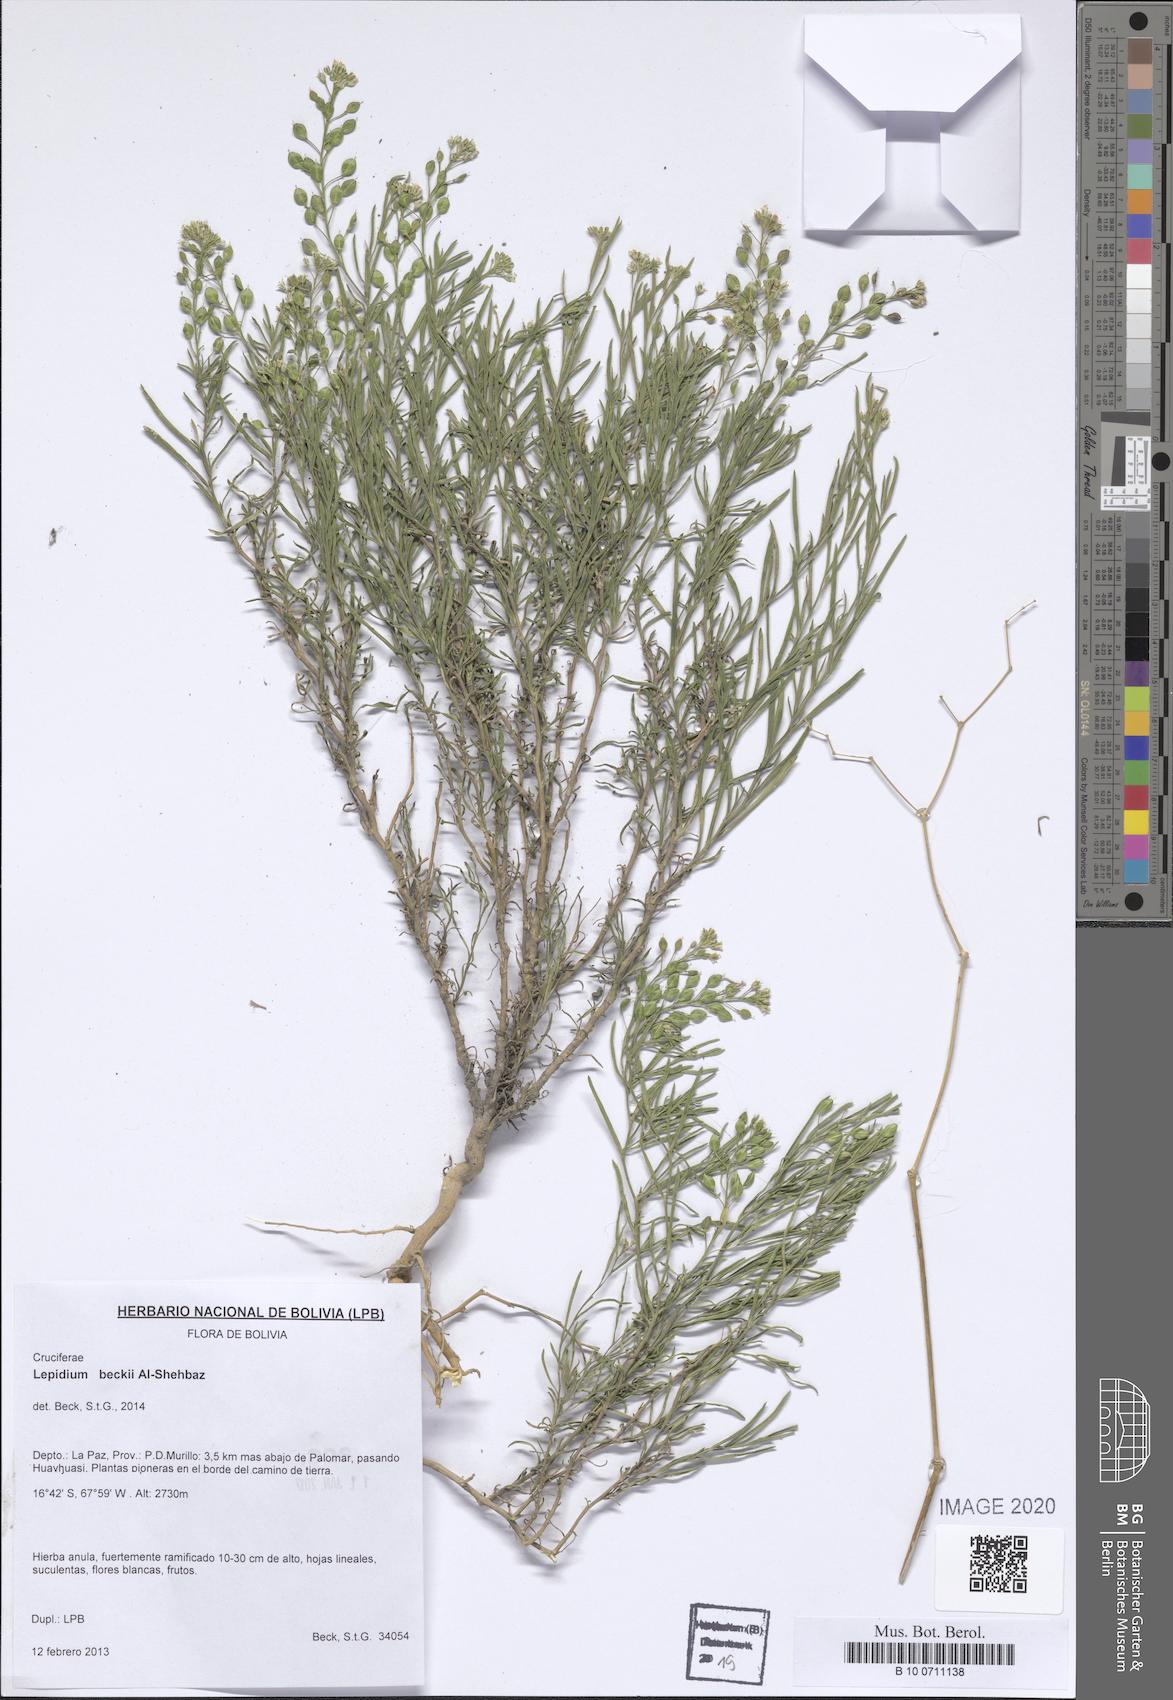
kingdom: Plantae
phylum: Tracheophyta
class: Magnoliopsida
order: Brassicales
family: Brassicaceae
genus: Lepidium
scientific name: Lepidium beckii
